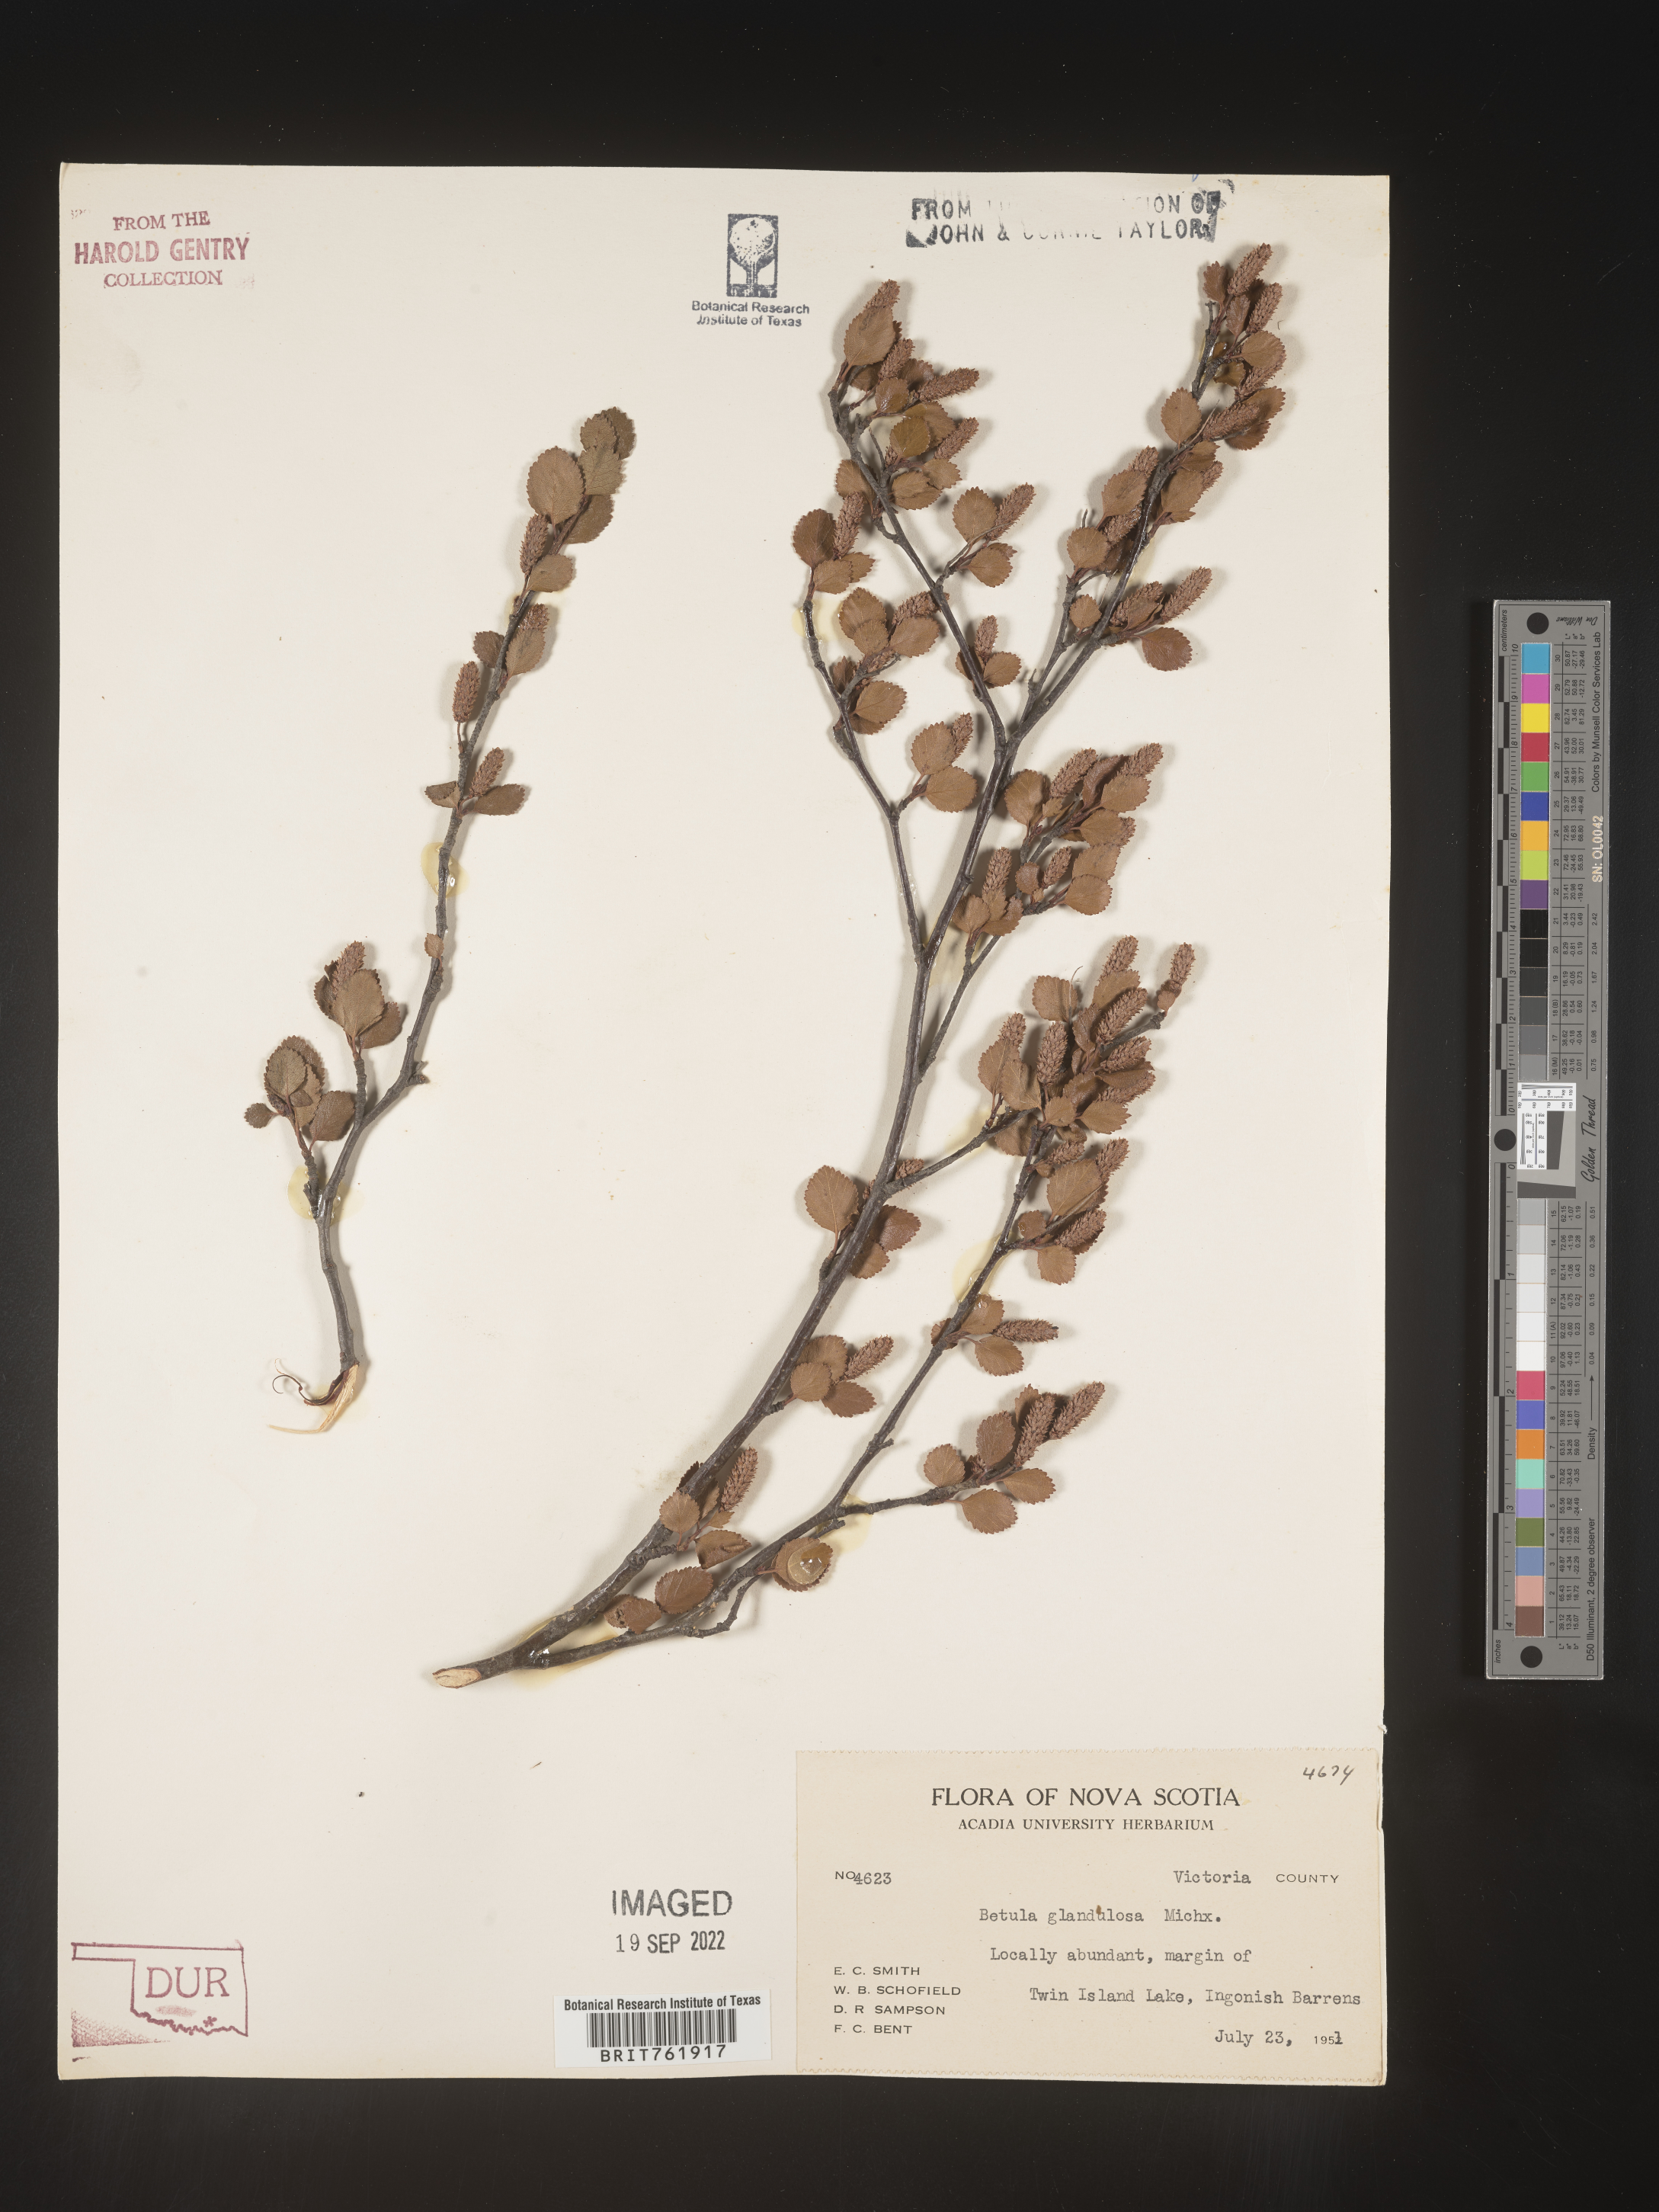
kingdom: Plantae
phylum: Tracheophyta
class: Magnoliopsida
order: Fagales
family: Betulaceae
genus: Betula
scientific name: Betula nana
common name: Arctic dwarf birch
